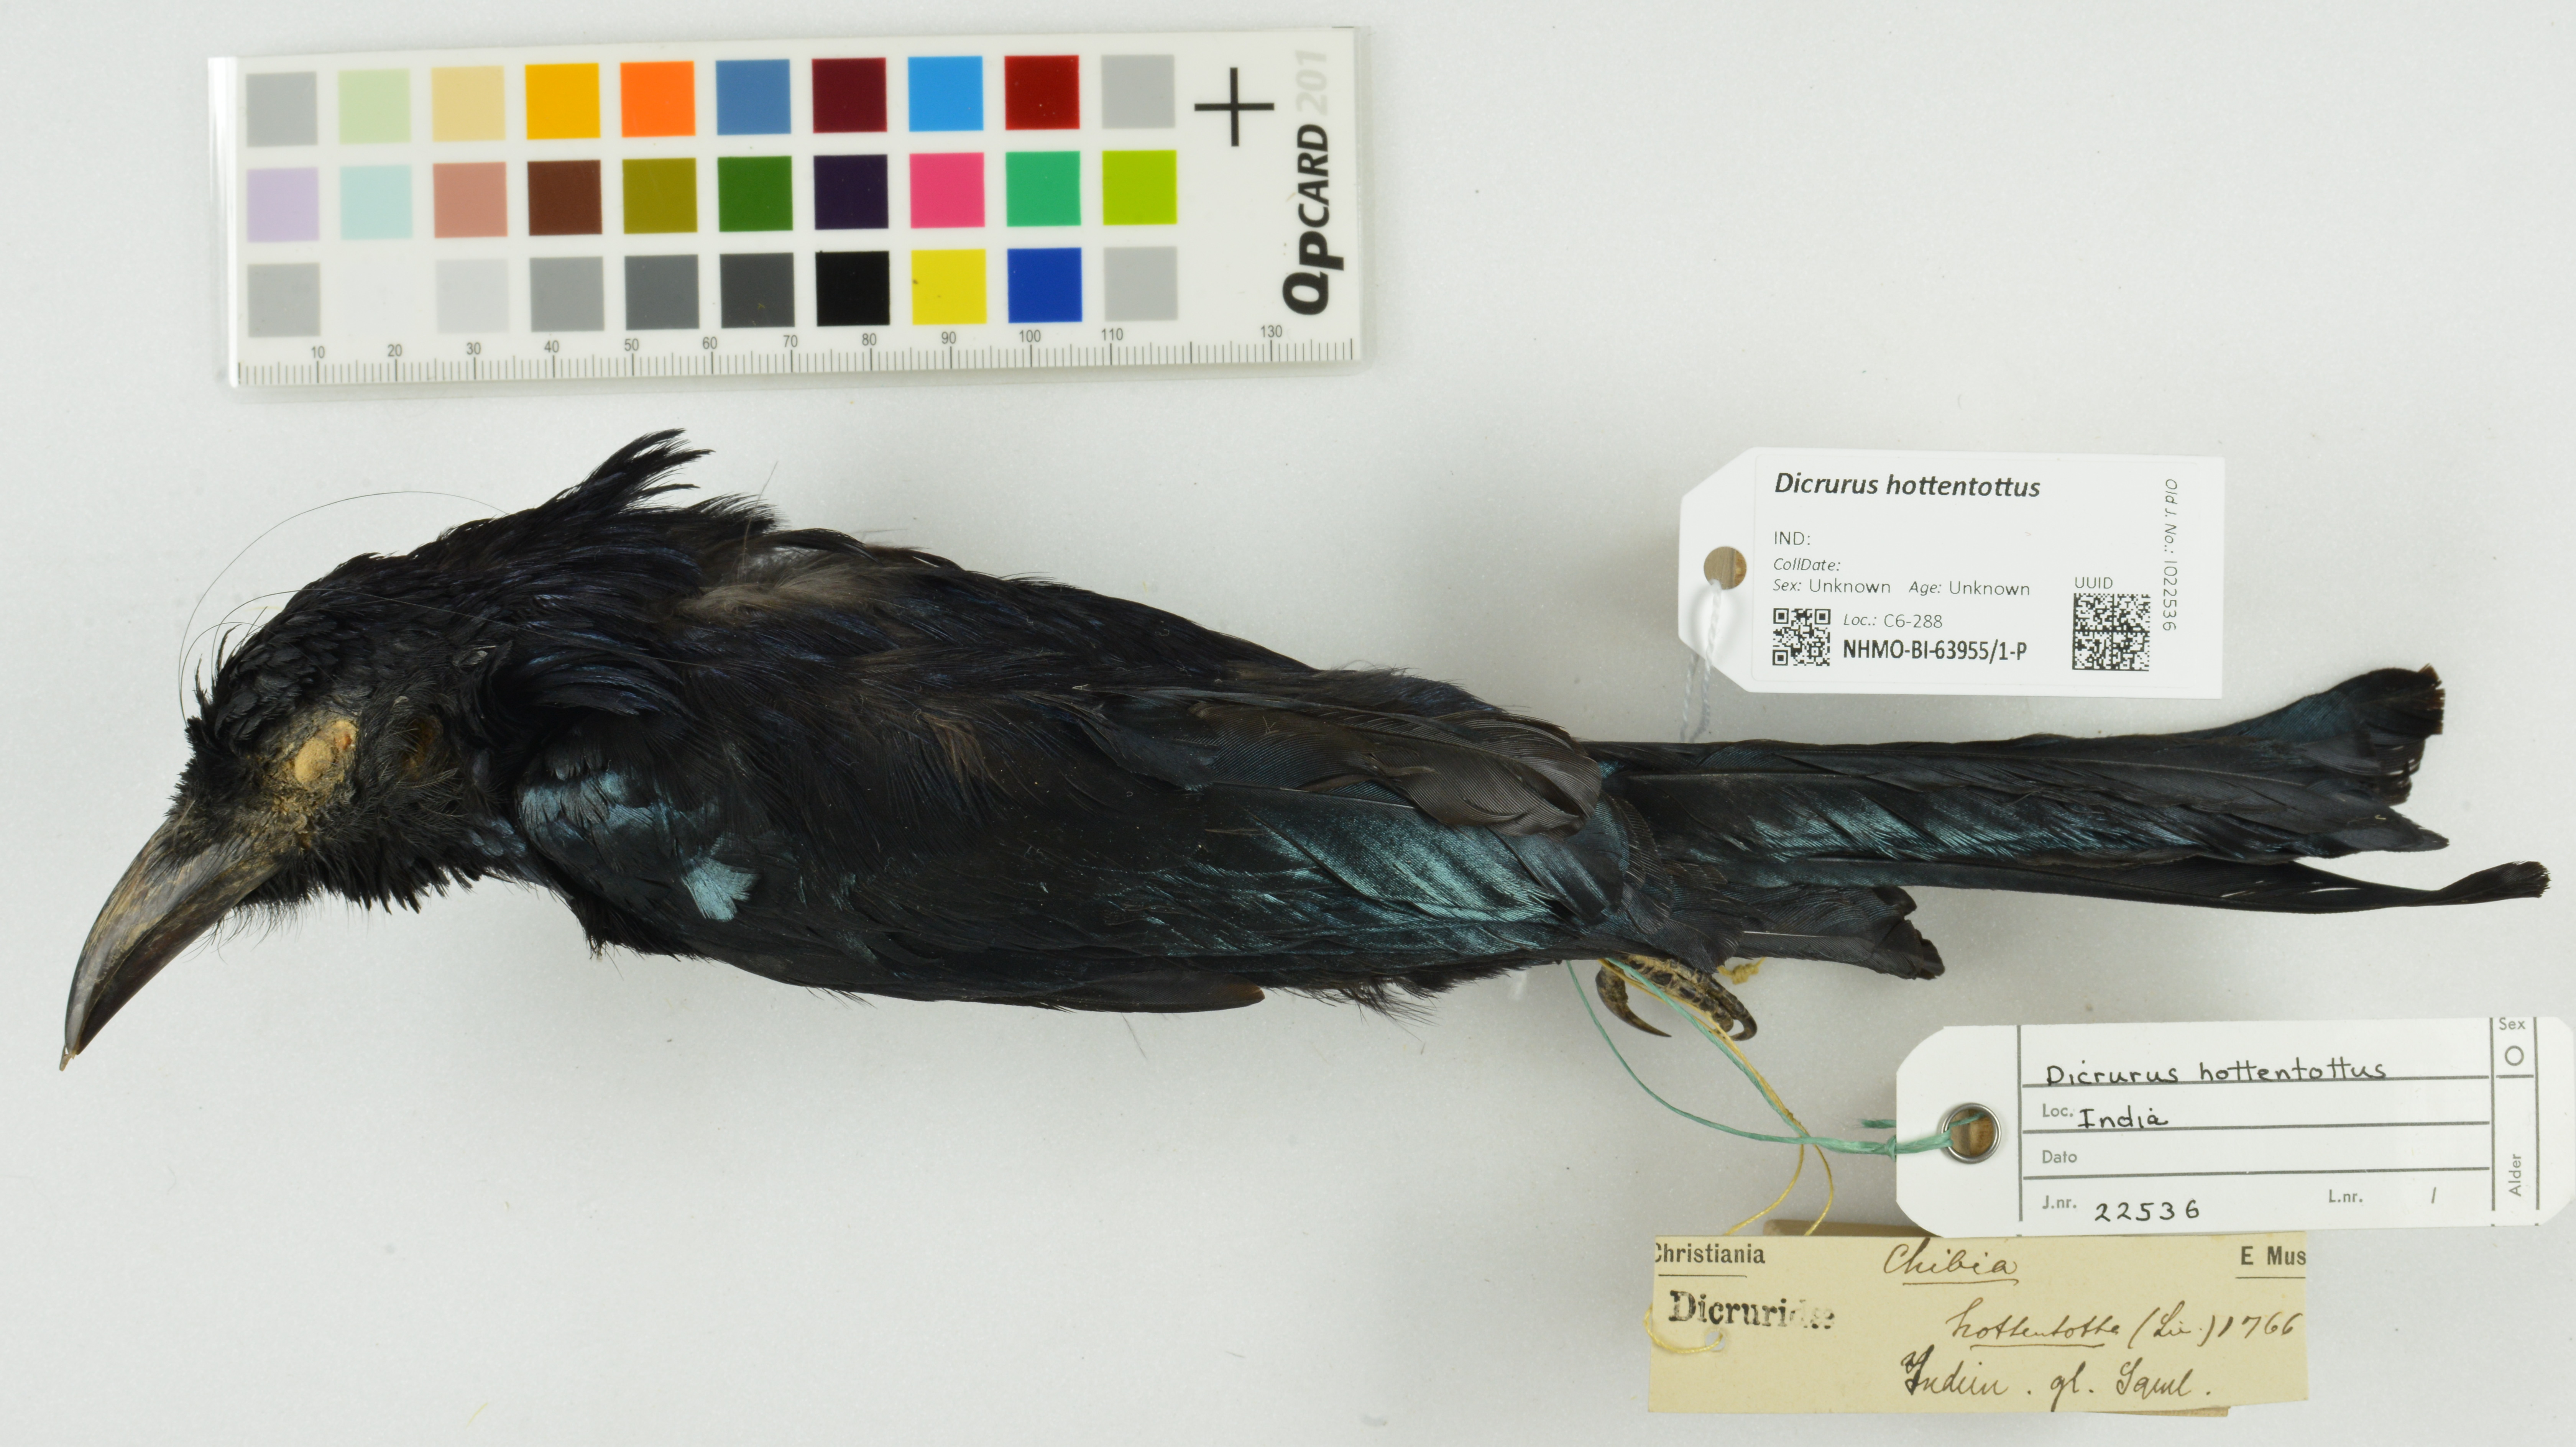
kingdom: Animalia
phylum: Chordata
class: Aves
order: Passeriformes
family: Dicruridae
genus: Dicrurus
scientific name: Dicrurus hottentottus
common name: Hair-crested drongo
